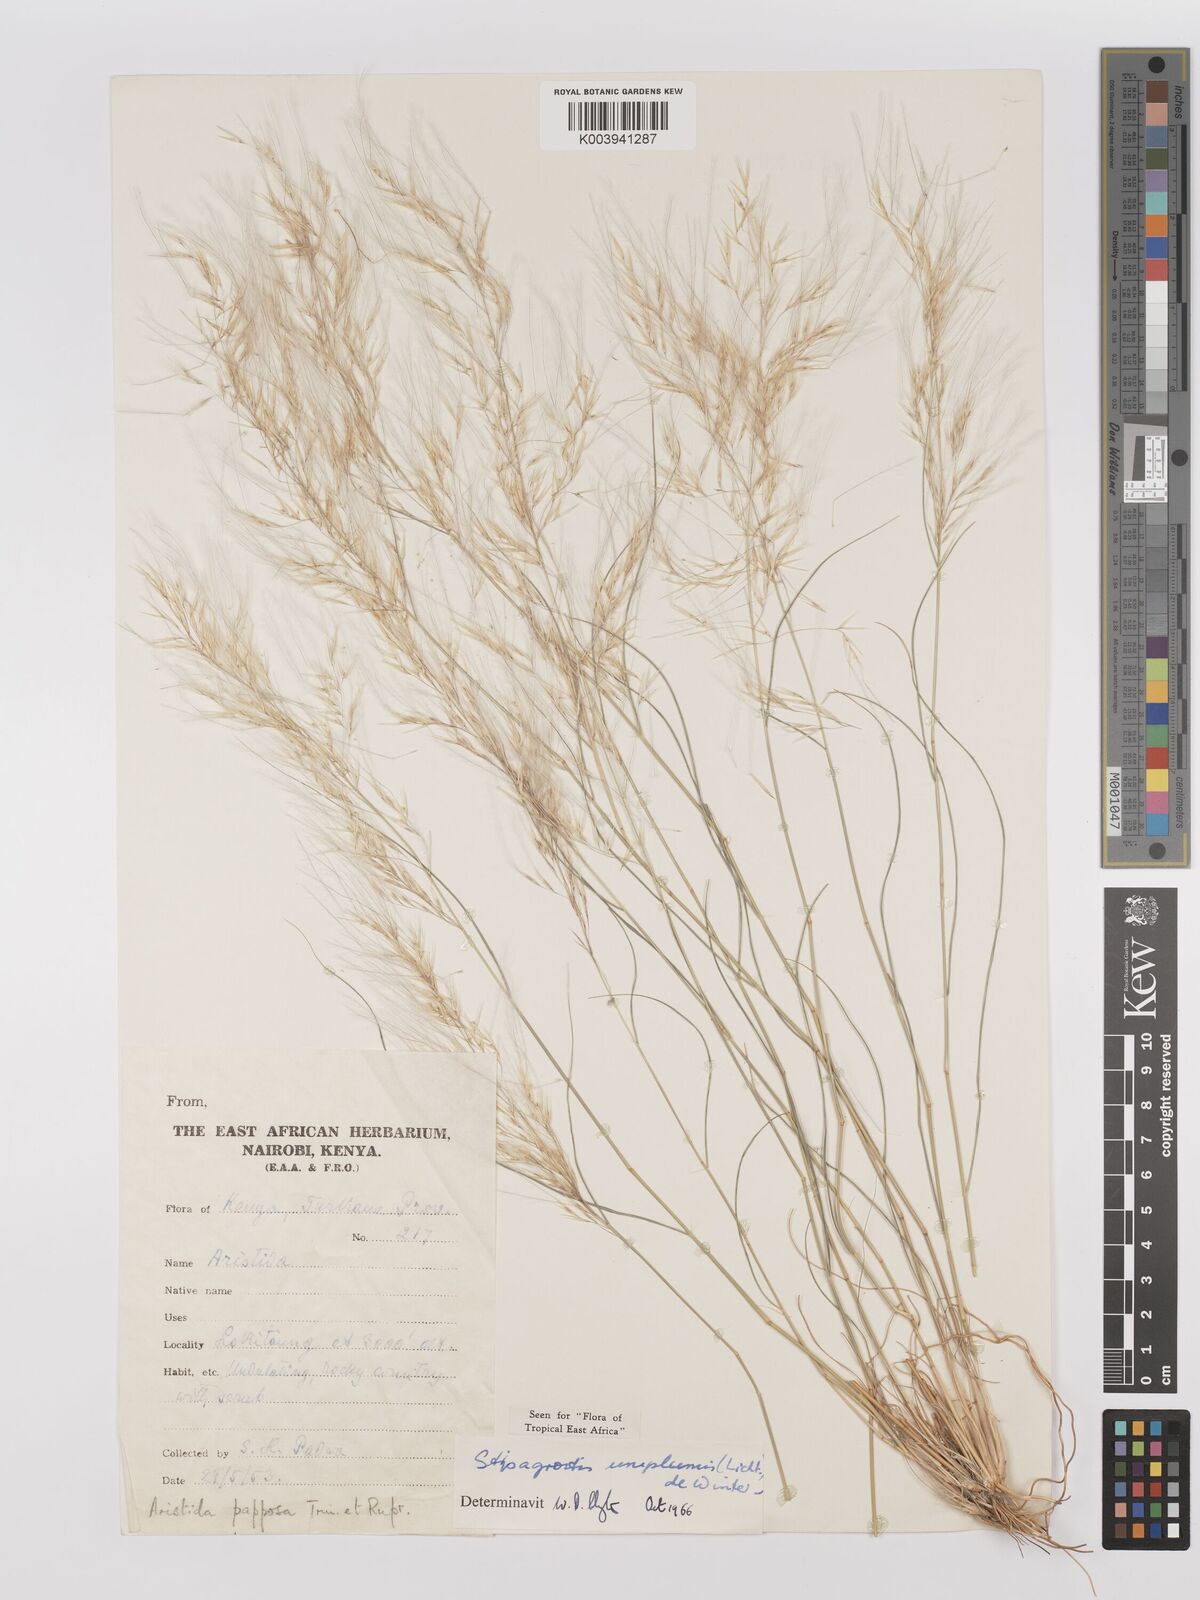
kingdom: Plantae
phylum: Tracheophyta
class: Liliopsida
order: Poales
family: Poaceae
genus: Stipagrostis
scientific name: Stipagrostis uniplumis
